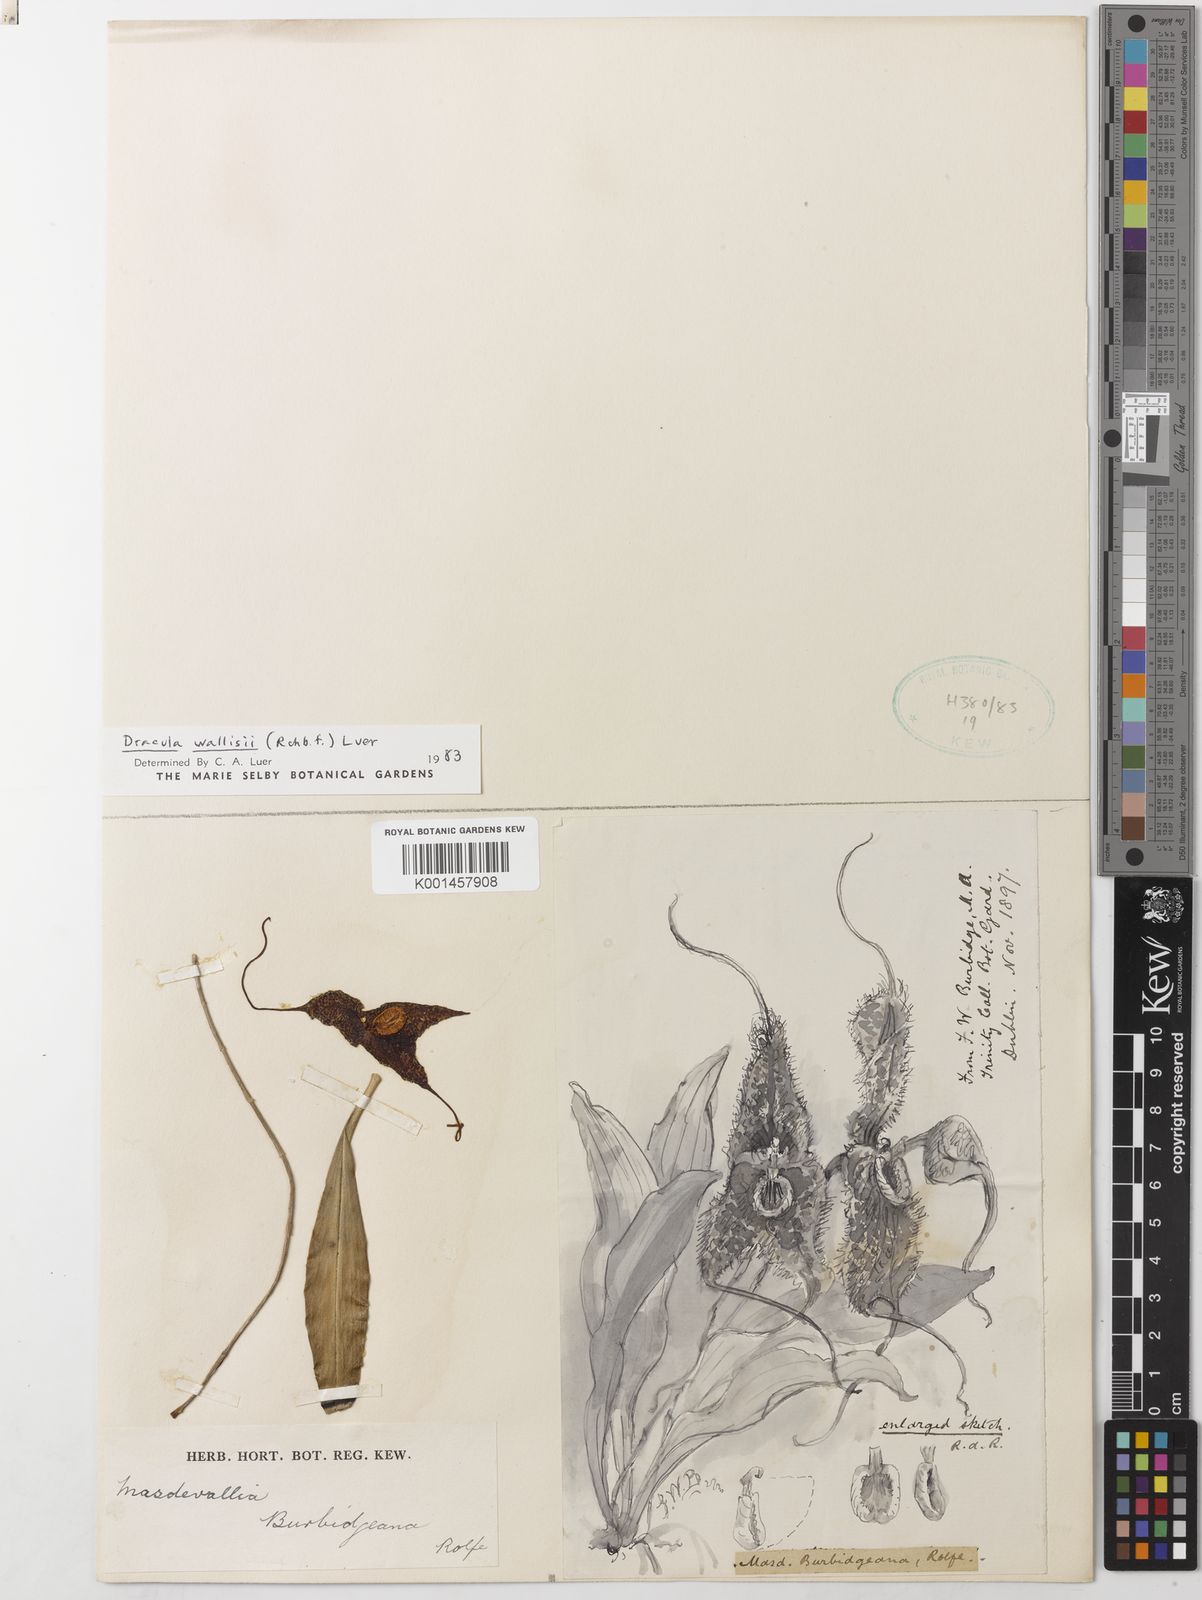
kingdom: Plantae
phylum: Tracheophyta
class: Liliopsida
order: Asparagales
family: Orchidaceae
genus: Dracula
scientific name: Dracula wallisii
